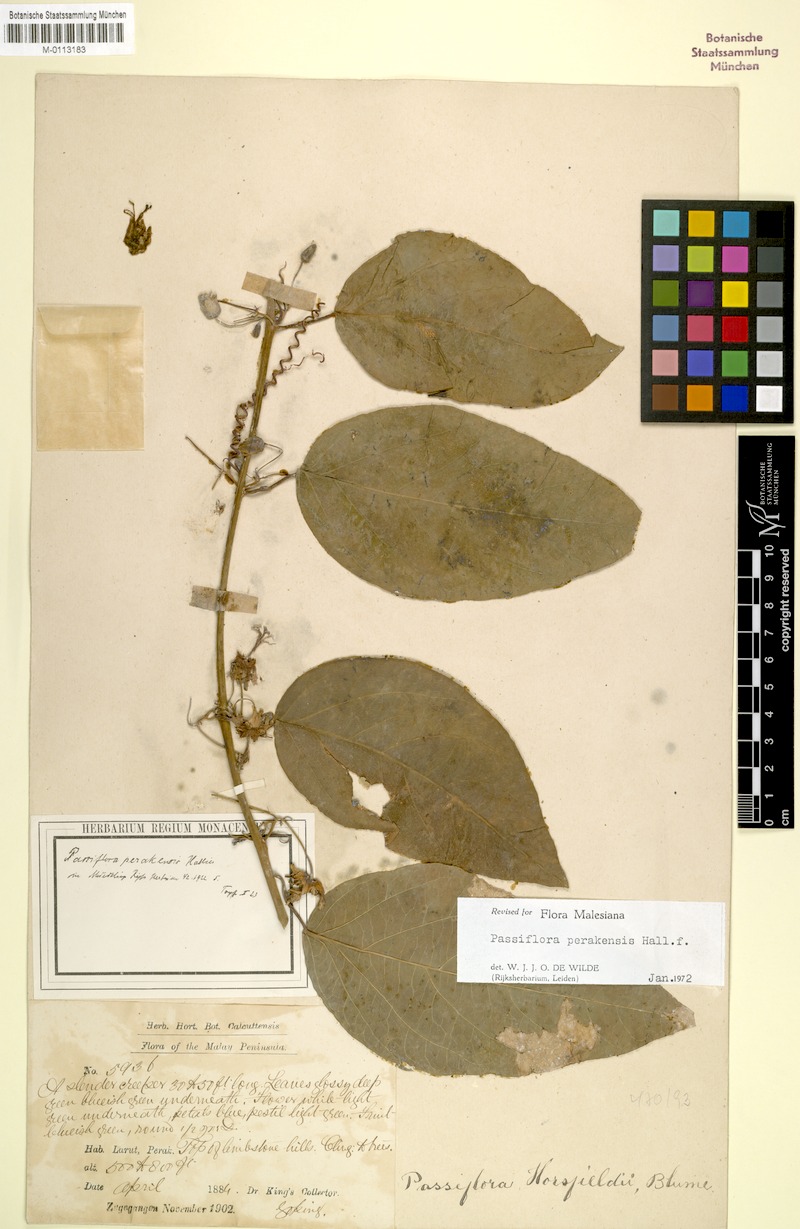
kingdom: Plantae
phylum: Tracheophyta
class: Magnoliopsida
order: Malpighiales
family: Passifloraceae
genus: Passiflora
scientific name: Passiflora perakensis
